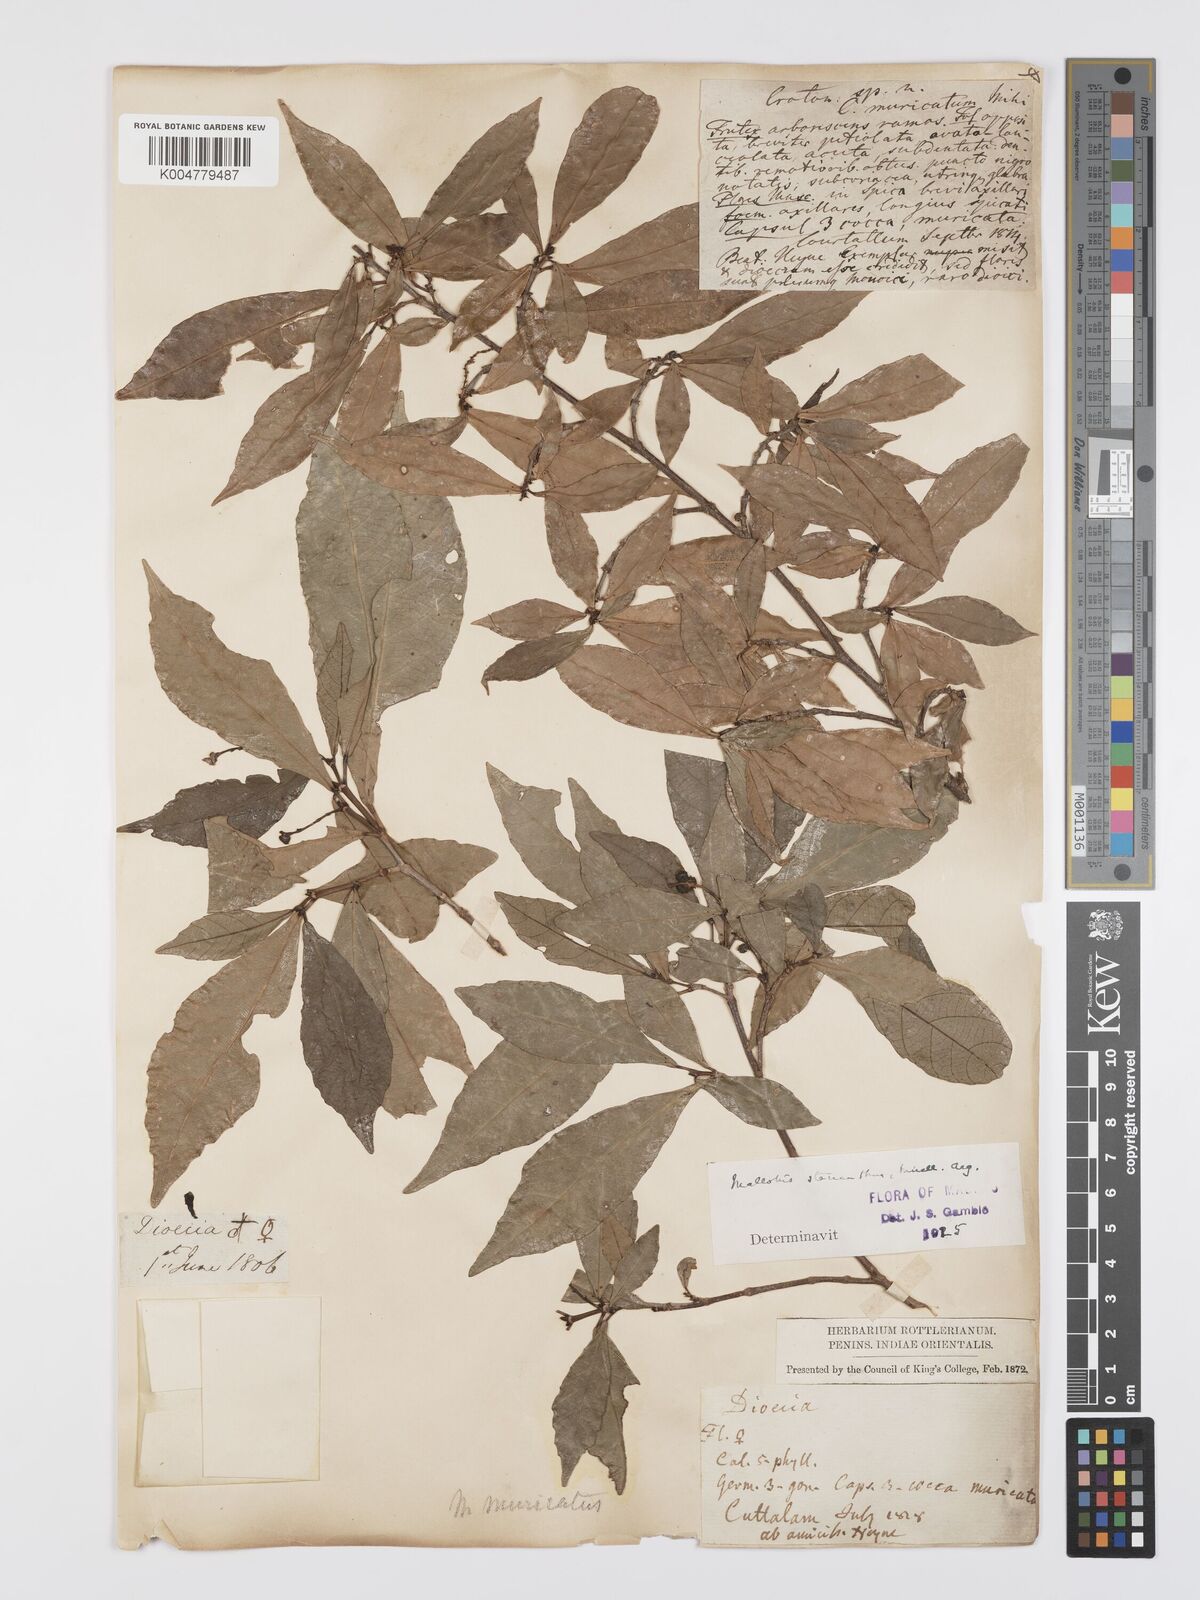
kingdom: Plantae
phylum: Tracheophyta
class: Magnoliopsida
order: Malpighiales
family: Euphorbiaceae
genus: Mallotus
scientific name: Mallotus resinosus
